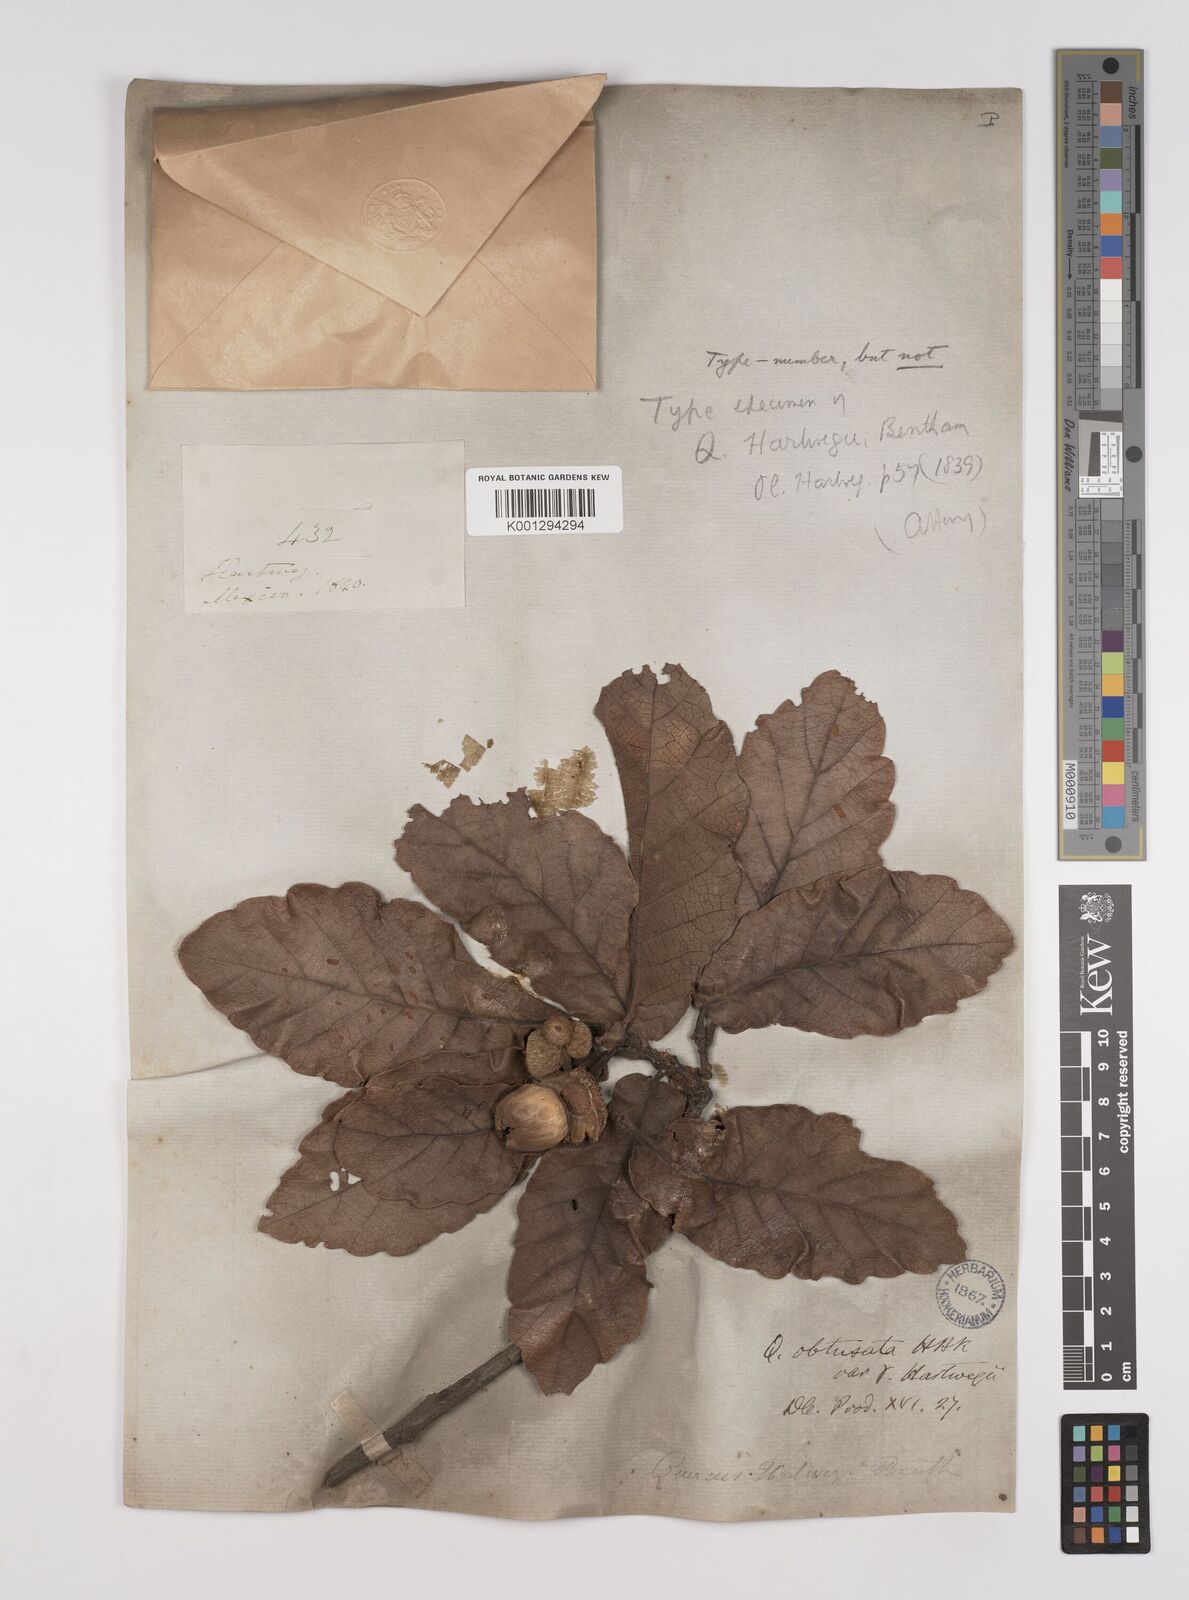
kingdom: Plantae
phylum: Tracheophyta
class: Magnoliopsida
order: Fagales
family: Fagaceae
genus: Quercus
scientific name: Quercus obtusata
